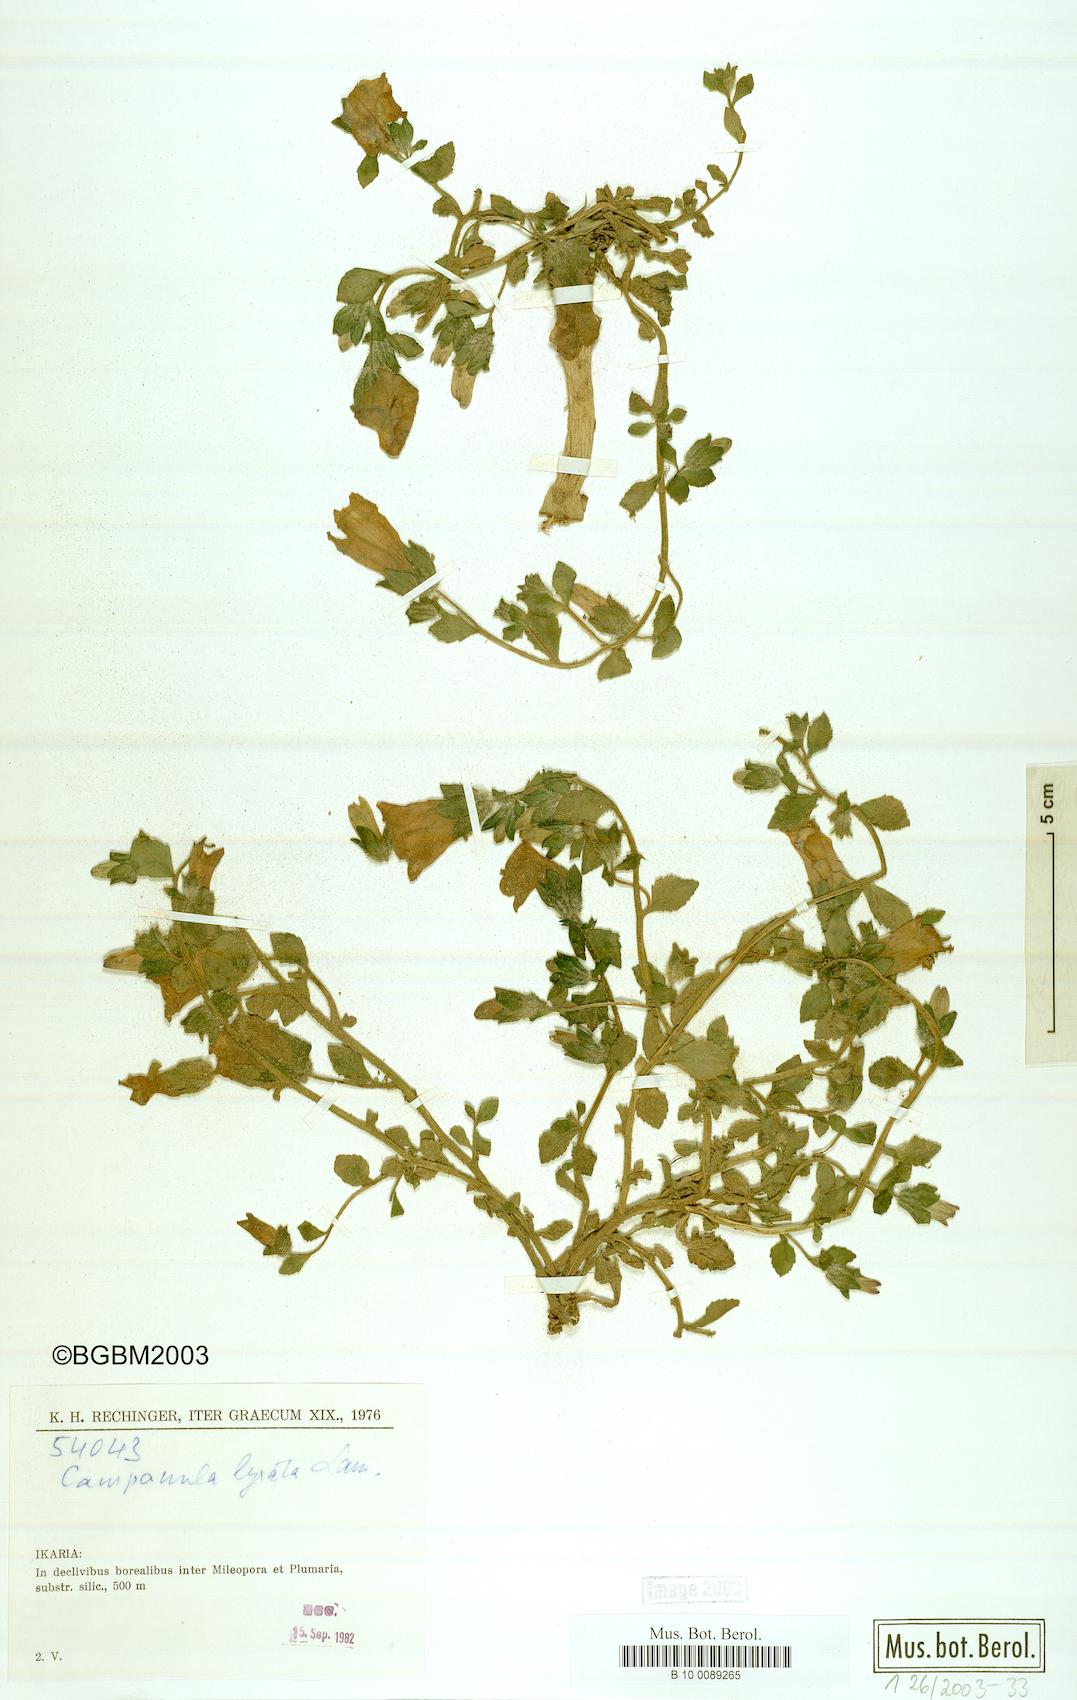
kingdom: Plantae
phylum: Tracheophyta
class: Magnoliopsida
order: Asterales
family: Campanulaceae
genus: Campanula
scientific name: Campanula lyrata
